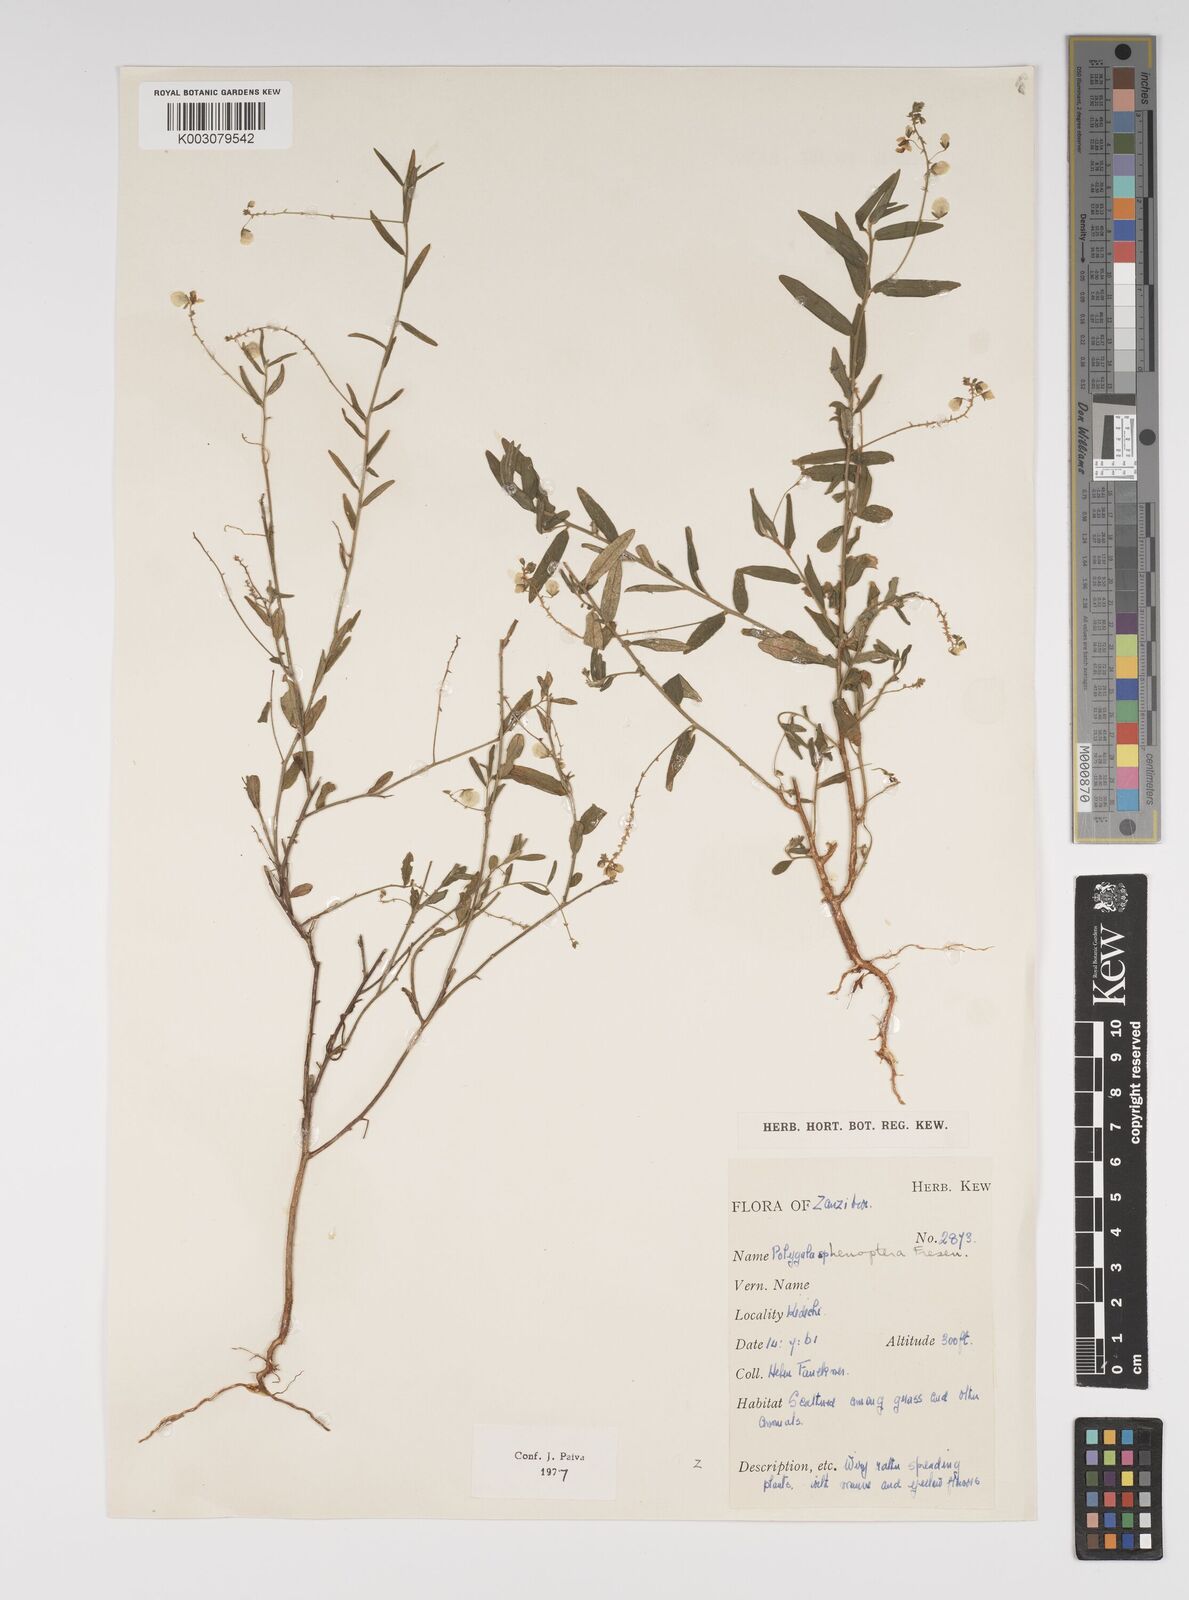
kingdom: Plantae
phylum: Tracheophyta
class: Magnoliopsida
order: Fabales
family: Polygalaceae
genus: Polygala
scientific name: Polygala sphenoptera
